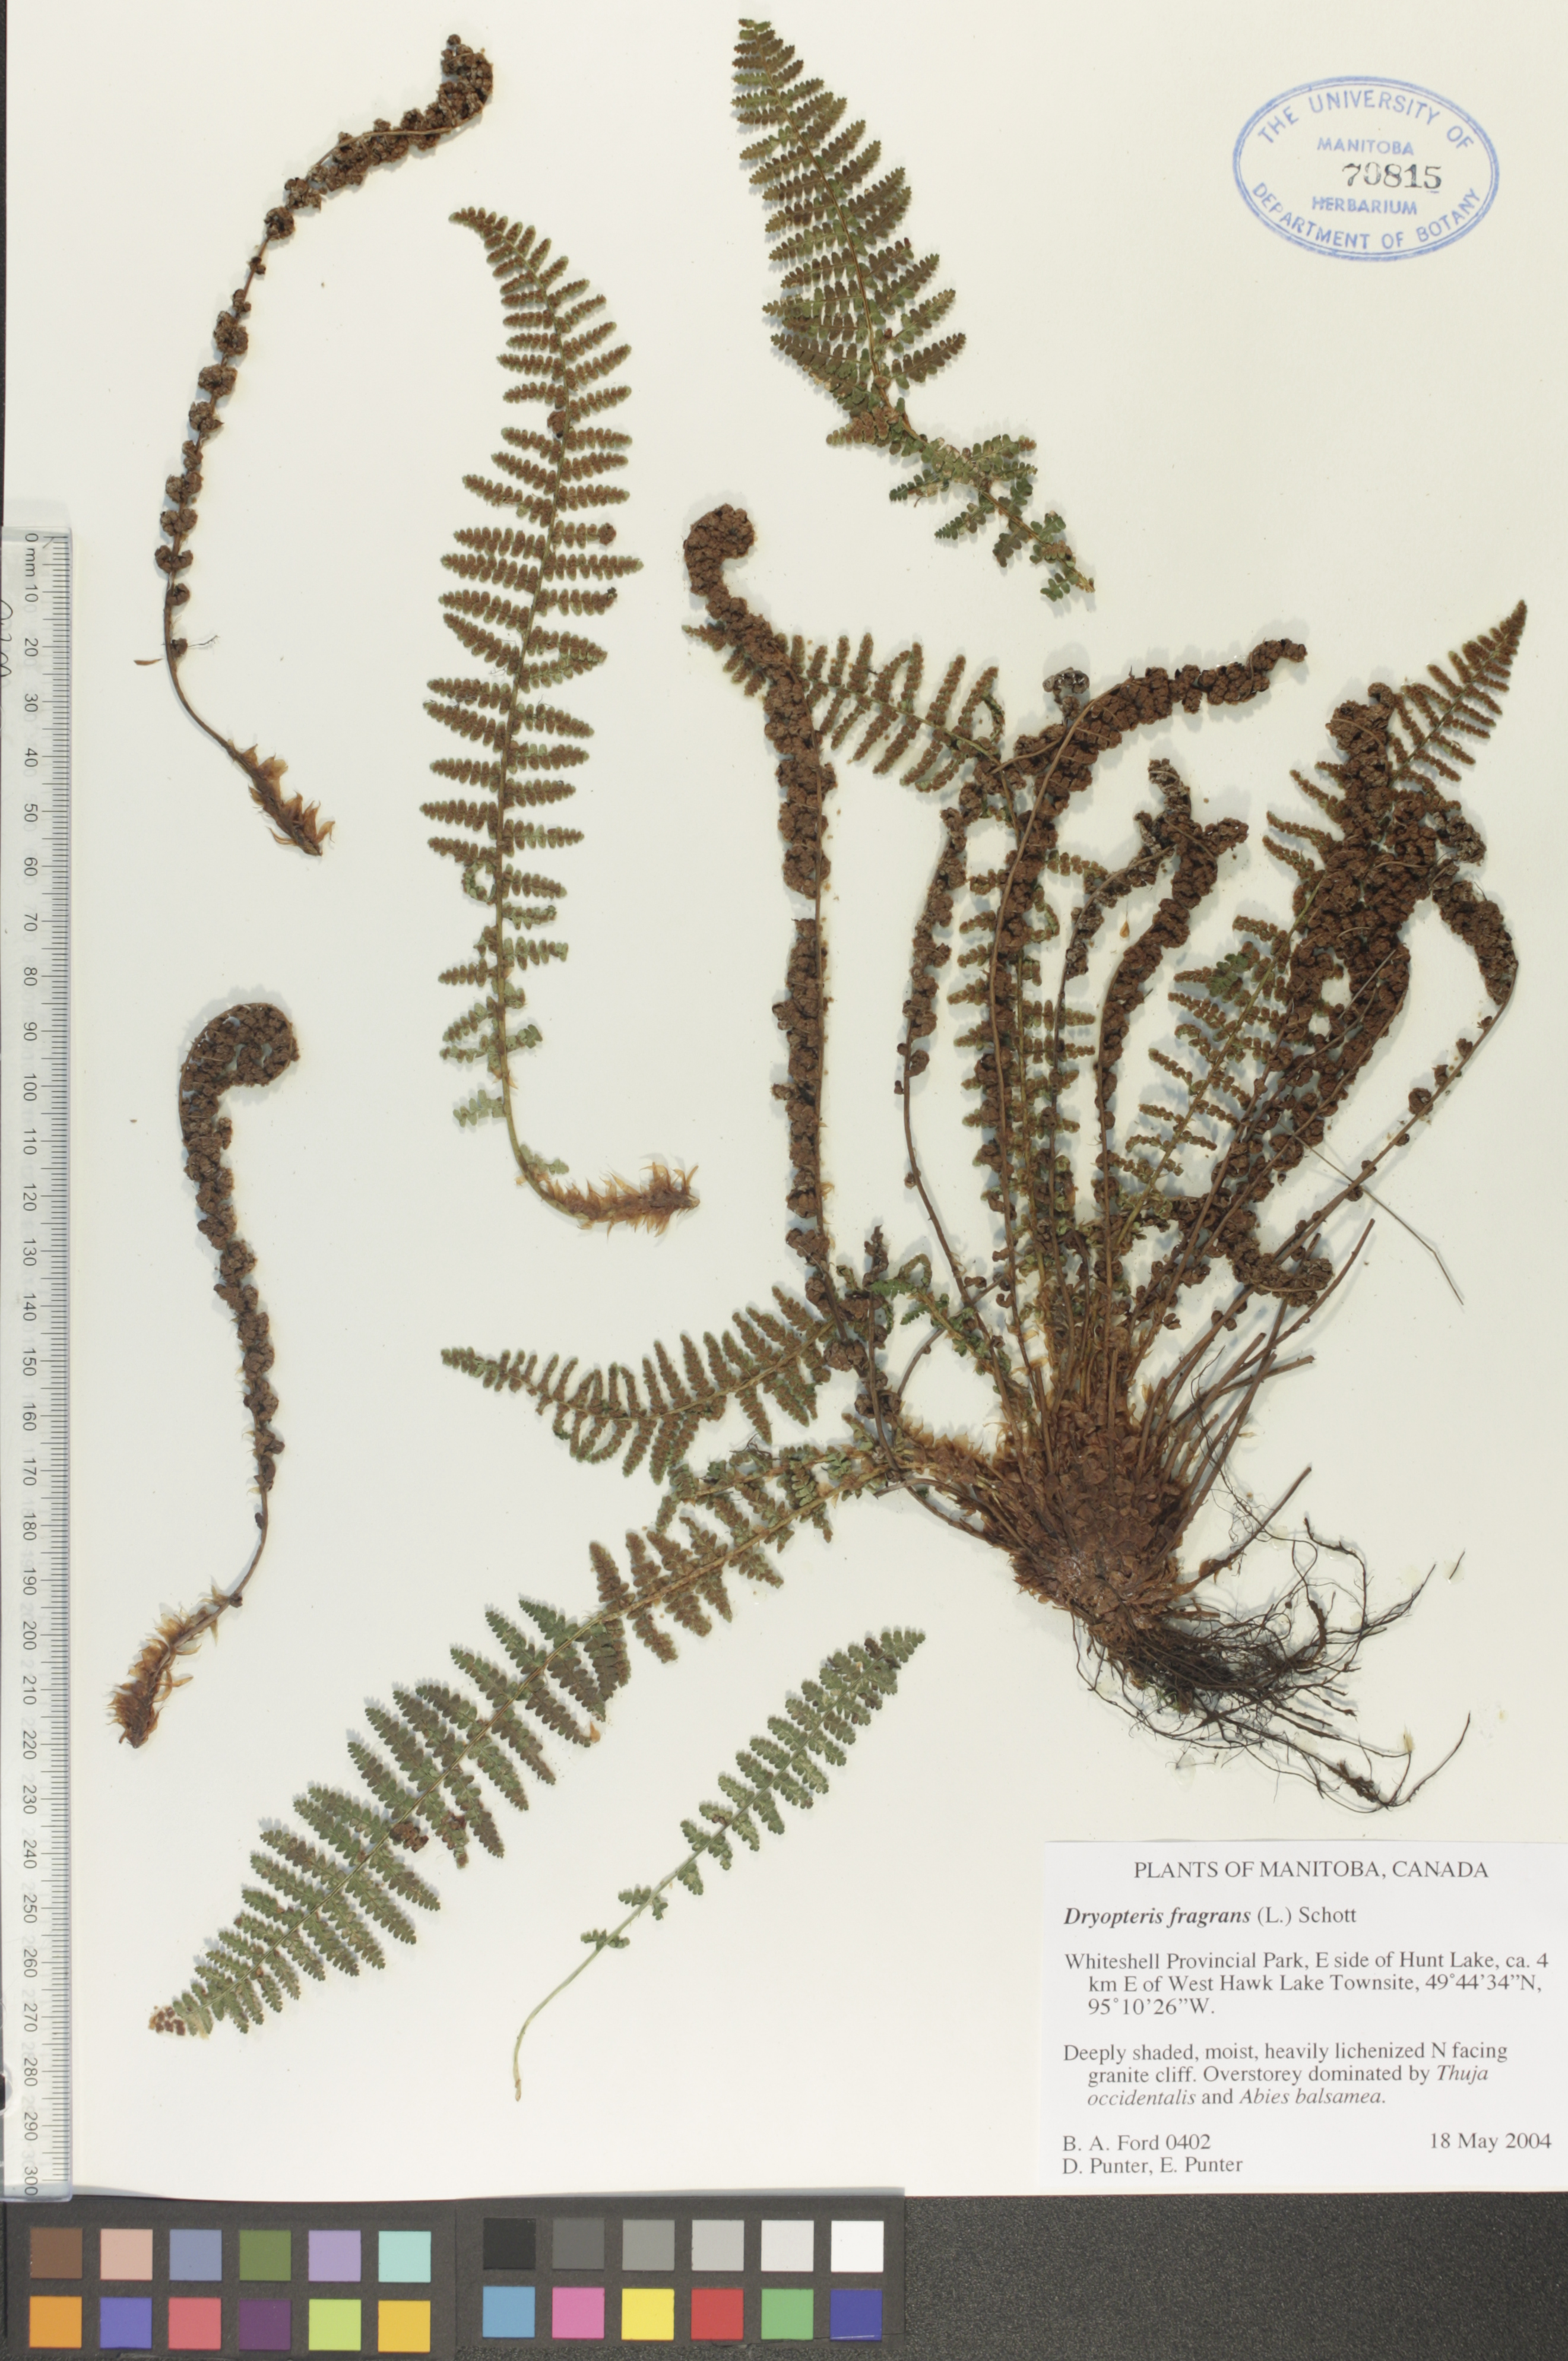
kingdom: Plantae
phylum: Tracheophyta
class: Polypodiopsida
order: Polypodiales
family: Dryopteridaceae
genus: Dryopteris
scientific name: Dryopteris fragrans
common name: Fragrant wood fern
